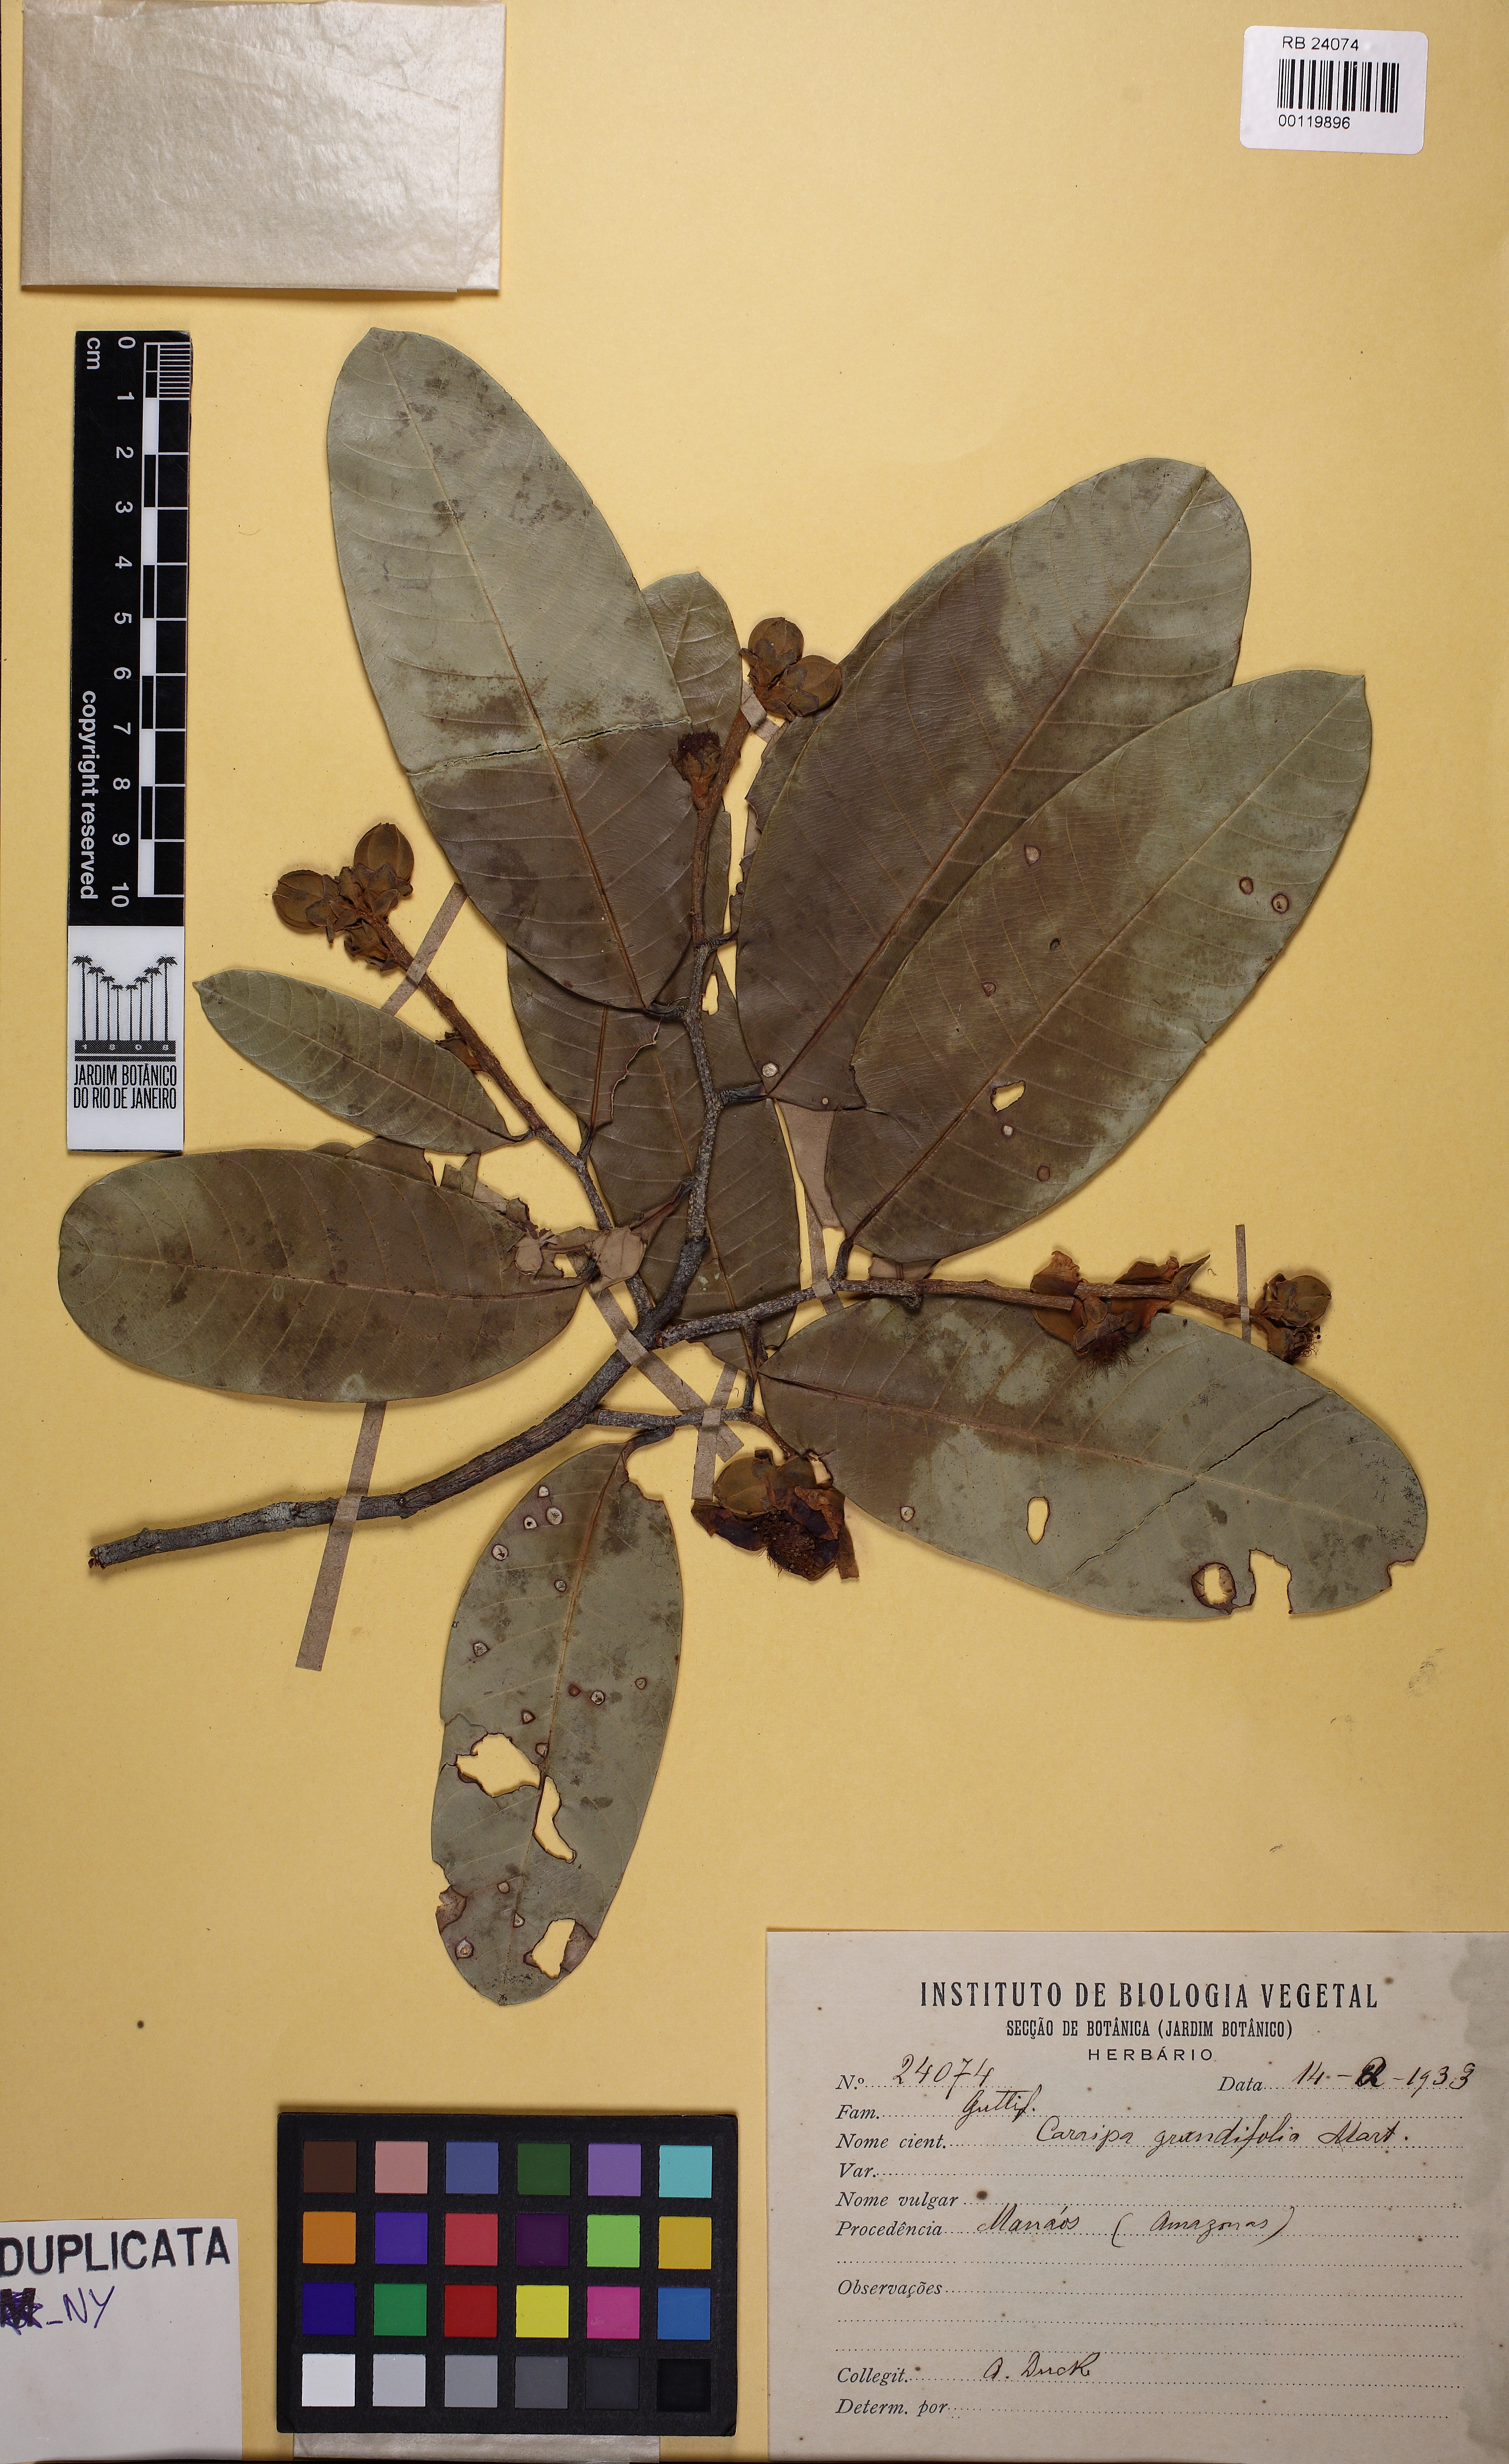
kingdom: Plantae
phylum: Tracheophyta
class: Magnoliopsida
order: Malpighiales
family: Calophyllaceae
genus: Caraipa
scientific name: Caraipa grandifolia
